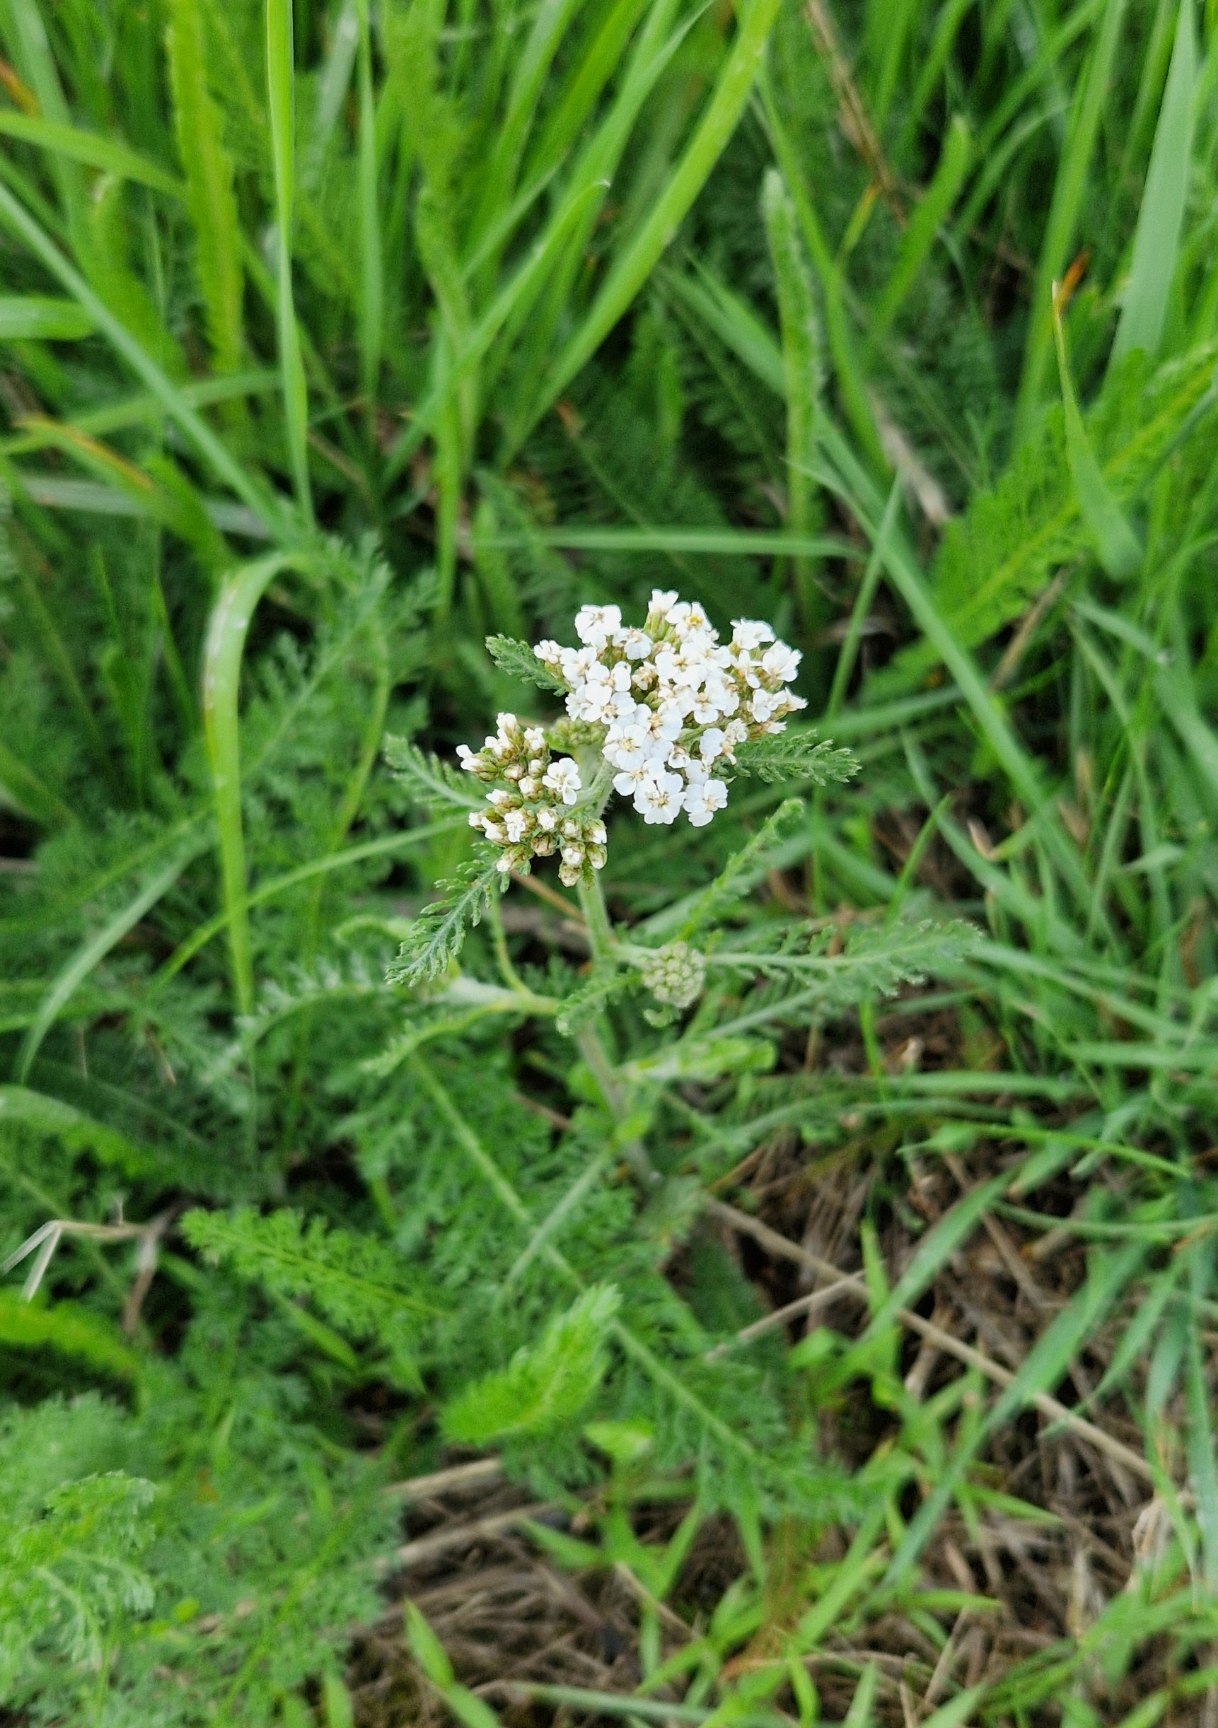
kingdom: Plantae
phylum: Tracheophyta
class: Magnoliopsida
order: Asterales
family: Asteraceae
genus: Achillea
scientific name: Achillea millefolium
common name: Almindelig røllike
